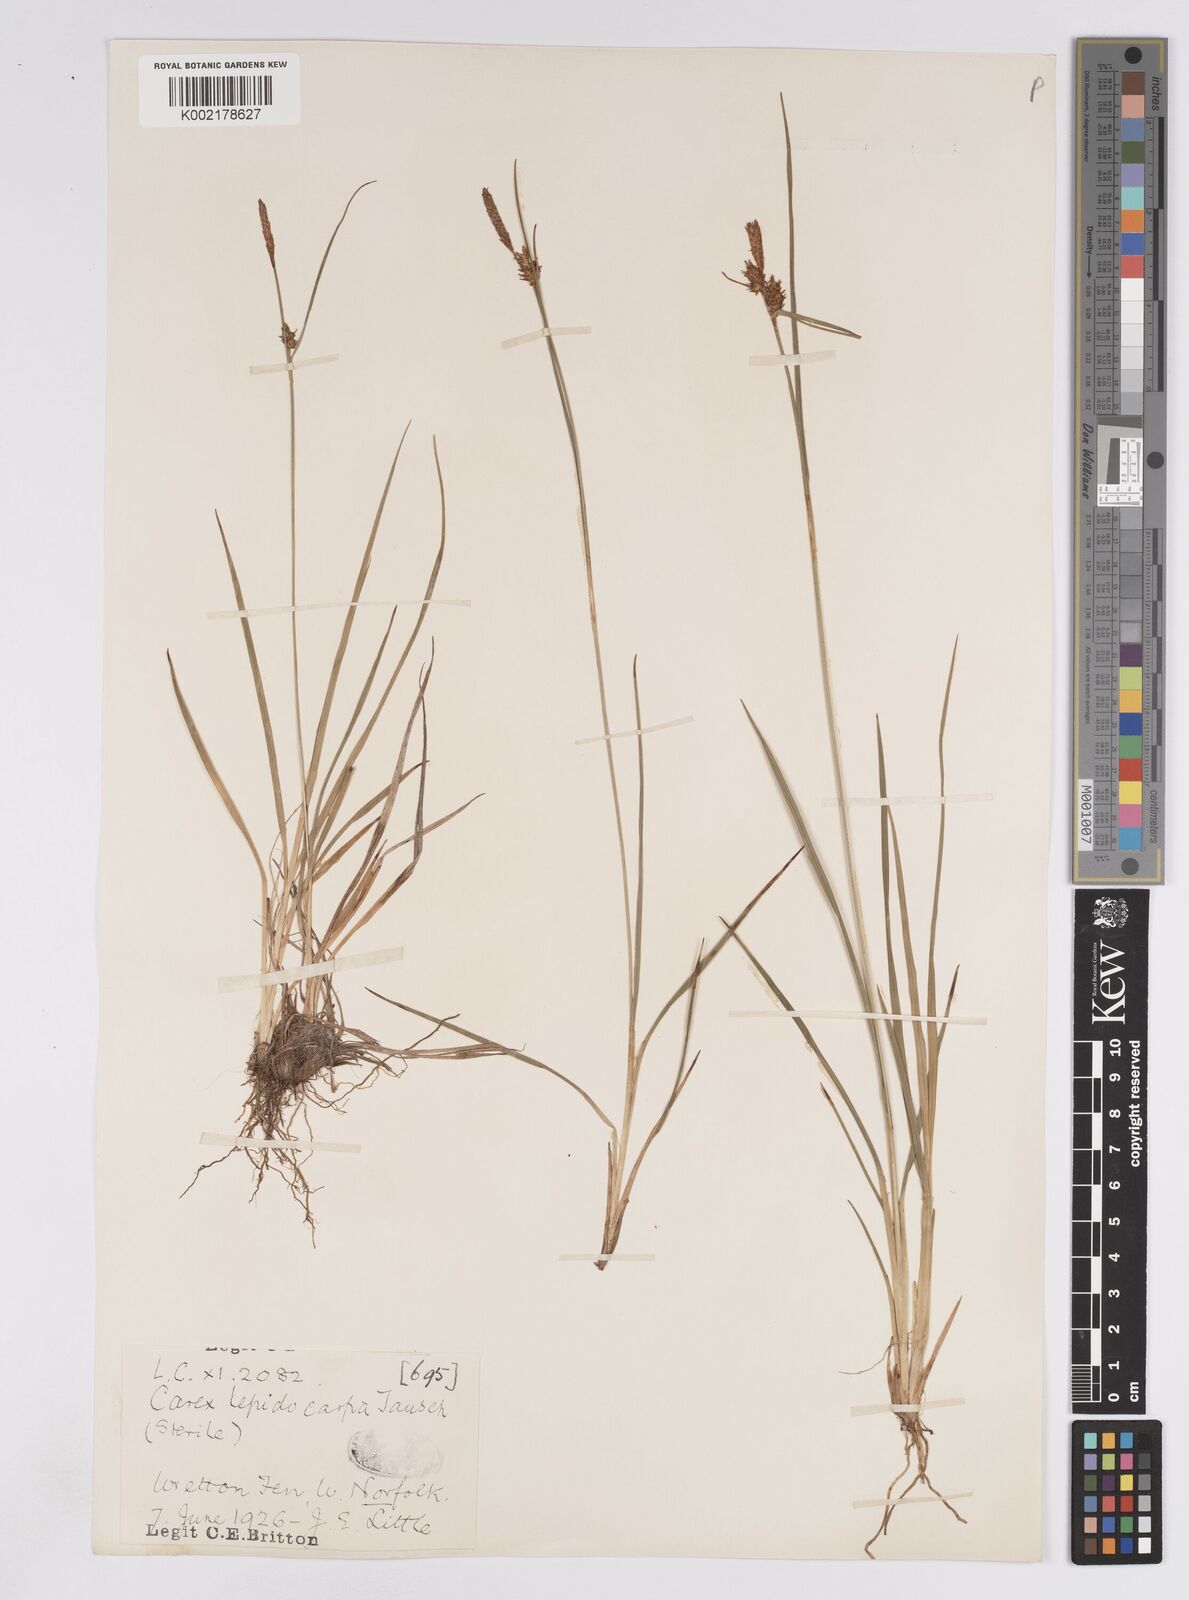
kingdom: Plantae
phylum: Tracheophyta
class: Liliopsida
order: Poales
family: Cyperaceae
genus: Carex
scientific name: Carex lepidocarpa
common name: Long-stalked yellow-sedge
